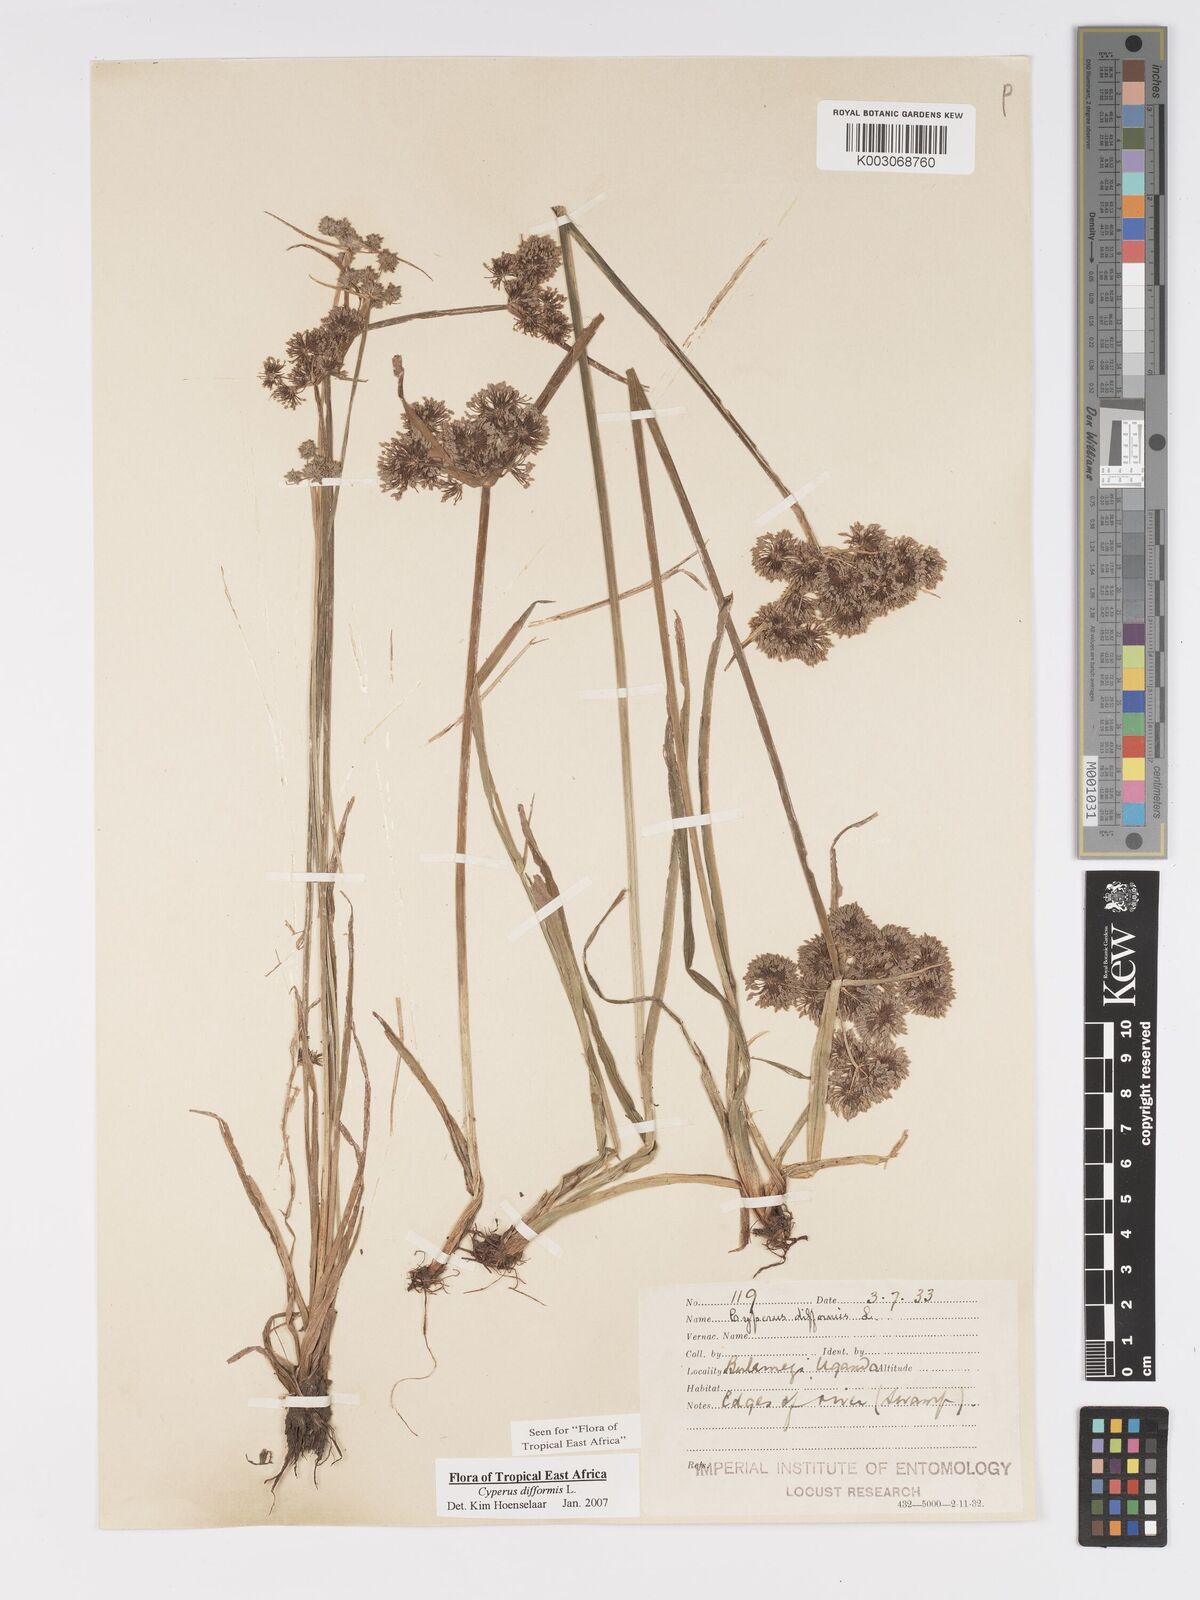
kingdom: Plantae
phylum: Tracheophyta
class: Liliopsida
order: Poales
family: Cyperaceae
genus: Cyperus
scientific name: Cyperus difformis
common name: Variable flatsedge
